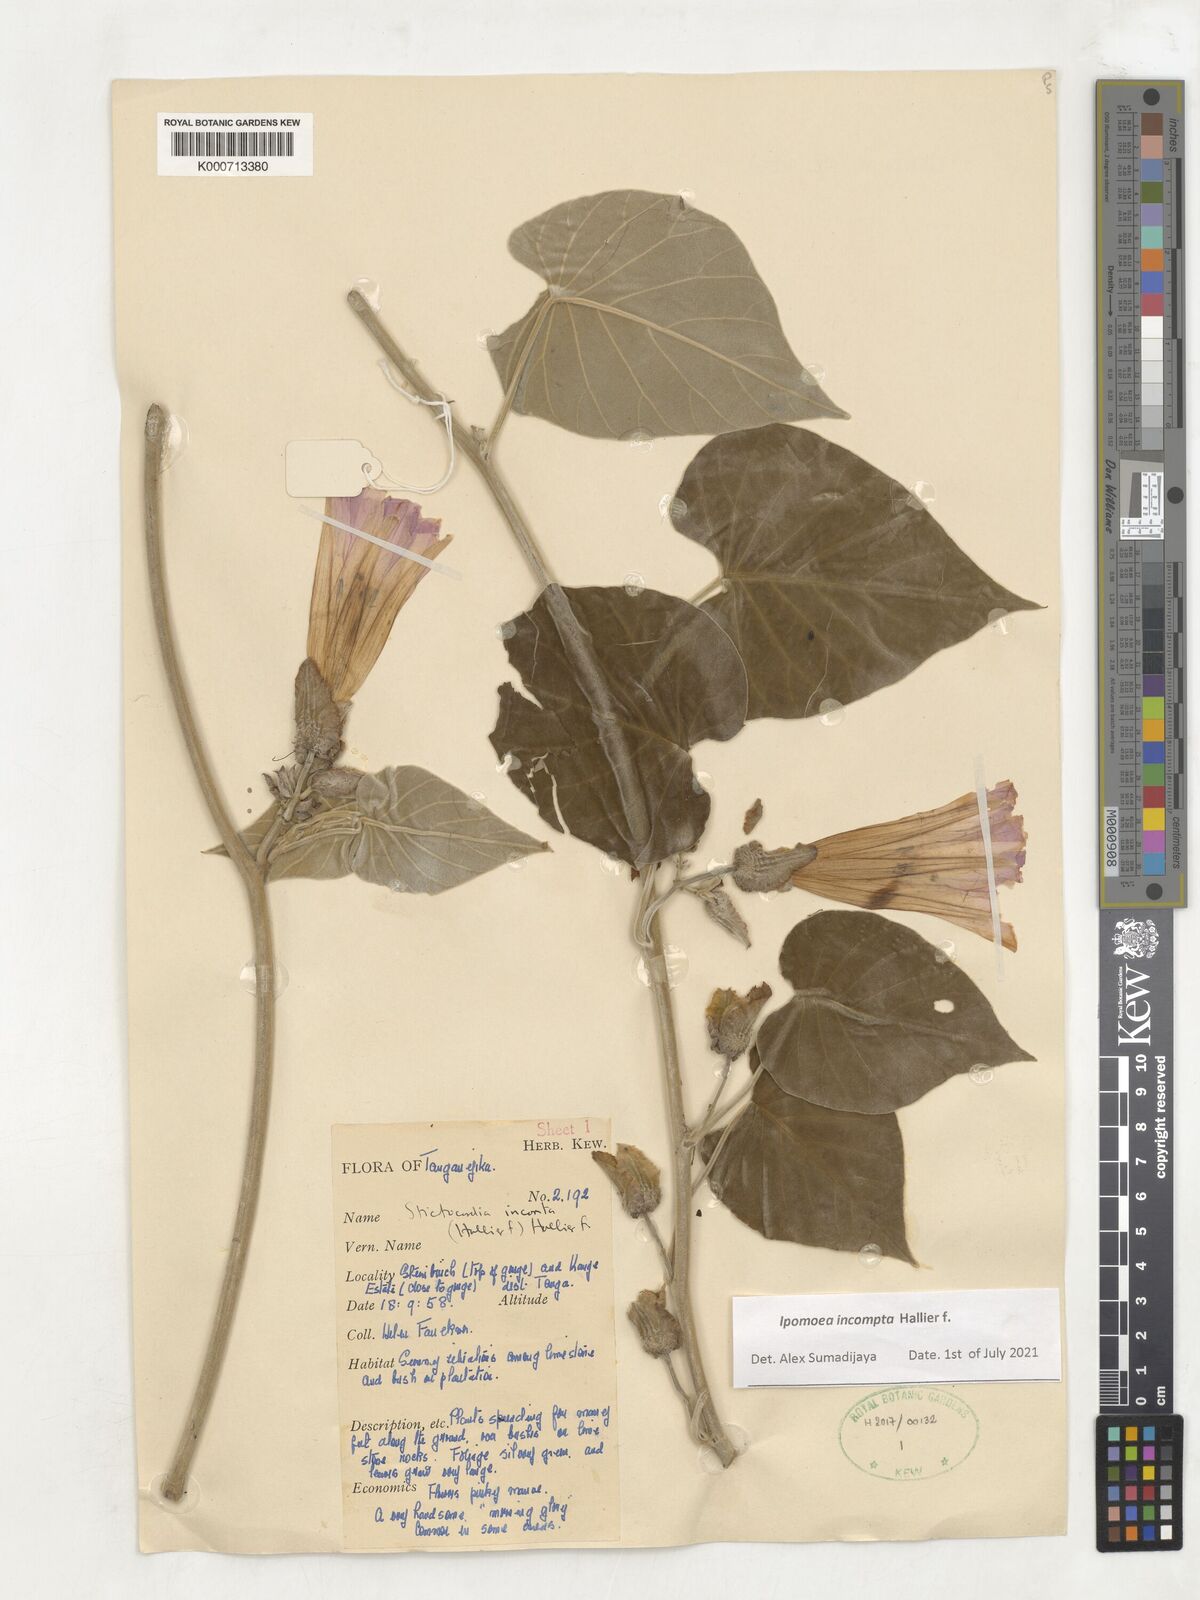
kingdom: Plantae
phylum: Tracheophyta
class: Magnoliopsida
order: Solanales
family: Convolvulaceae
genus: Stictocardia
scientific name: Stictocardia incomta
